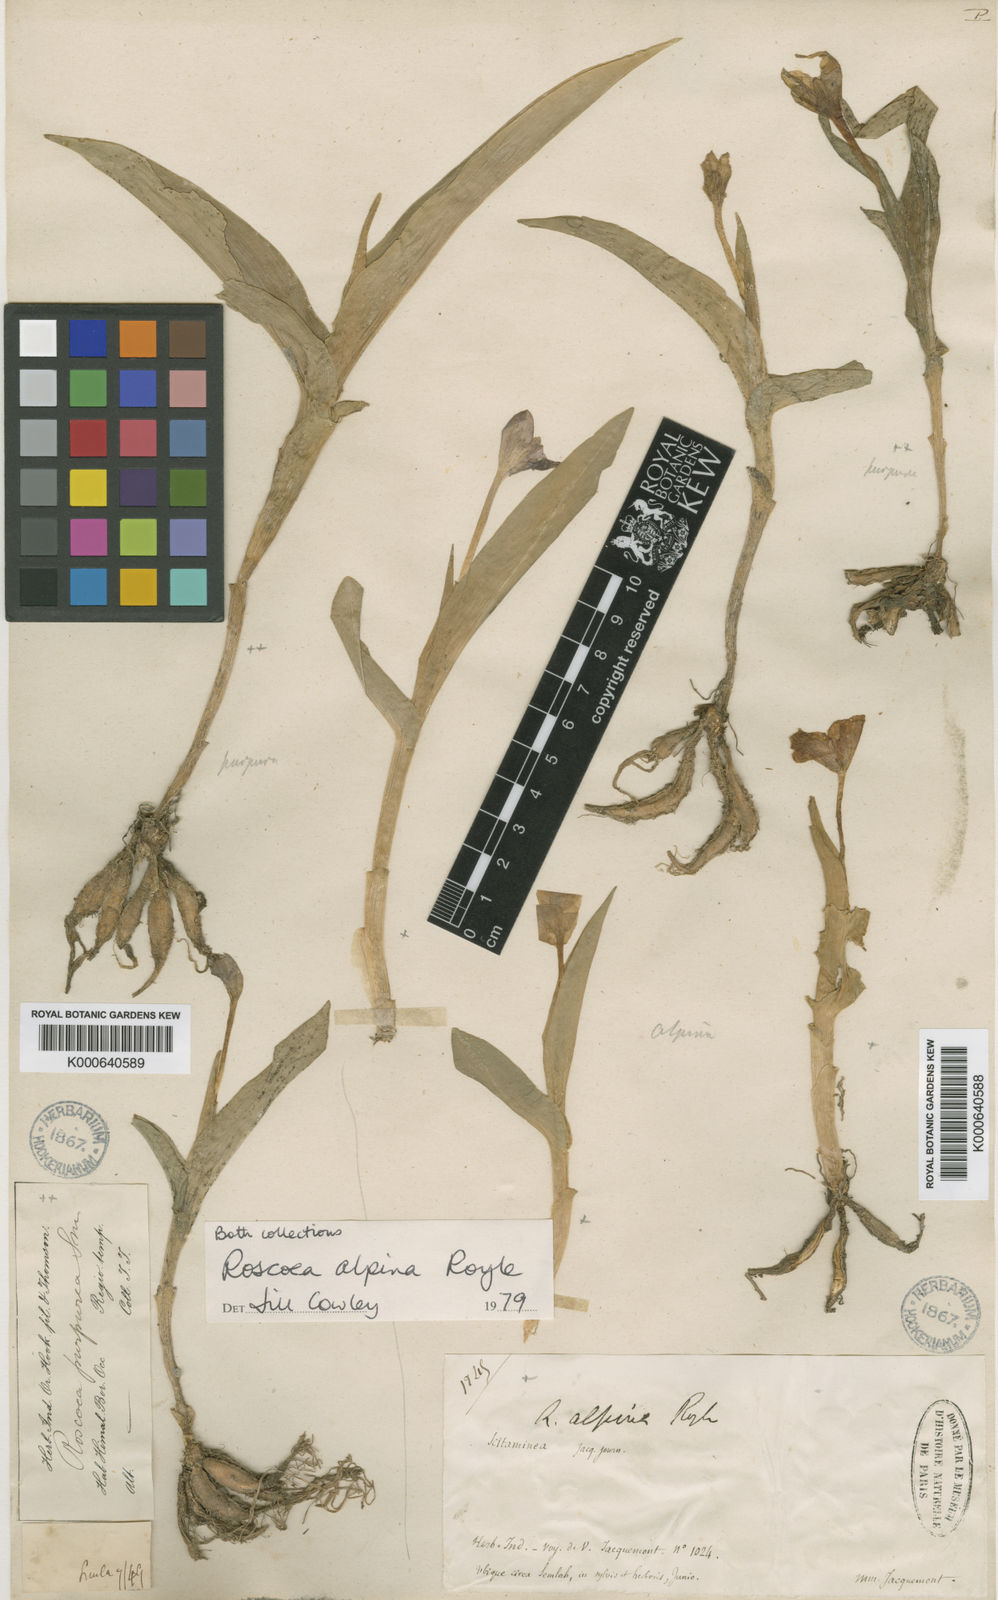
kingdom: Plantae
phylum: Tracheophyta
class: Liliopsida
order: Zingiberales
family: Zingiberaceae
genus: Roscoea
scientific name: Roscoea alpina
